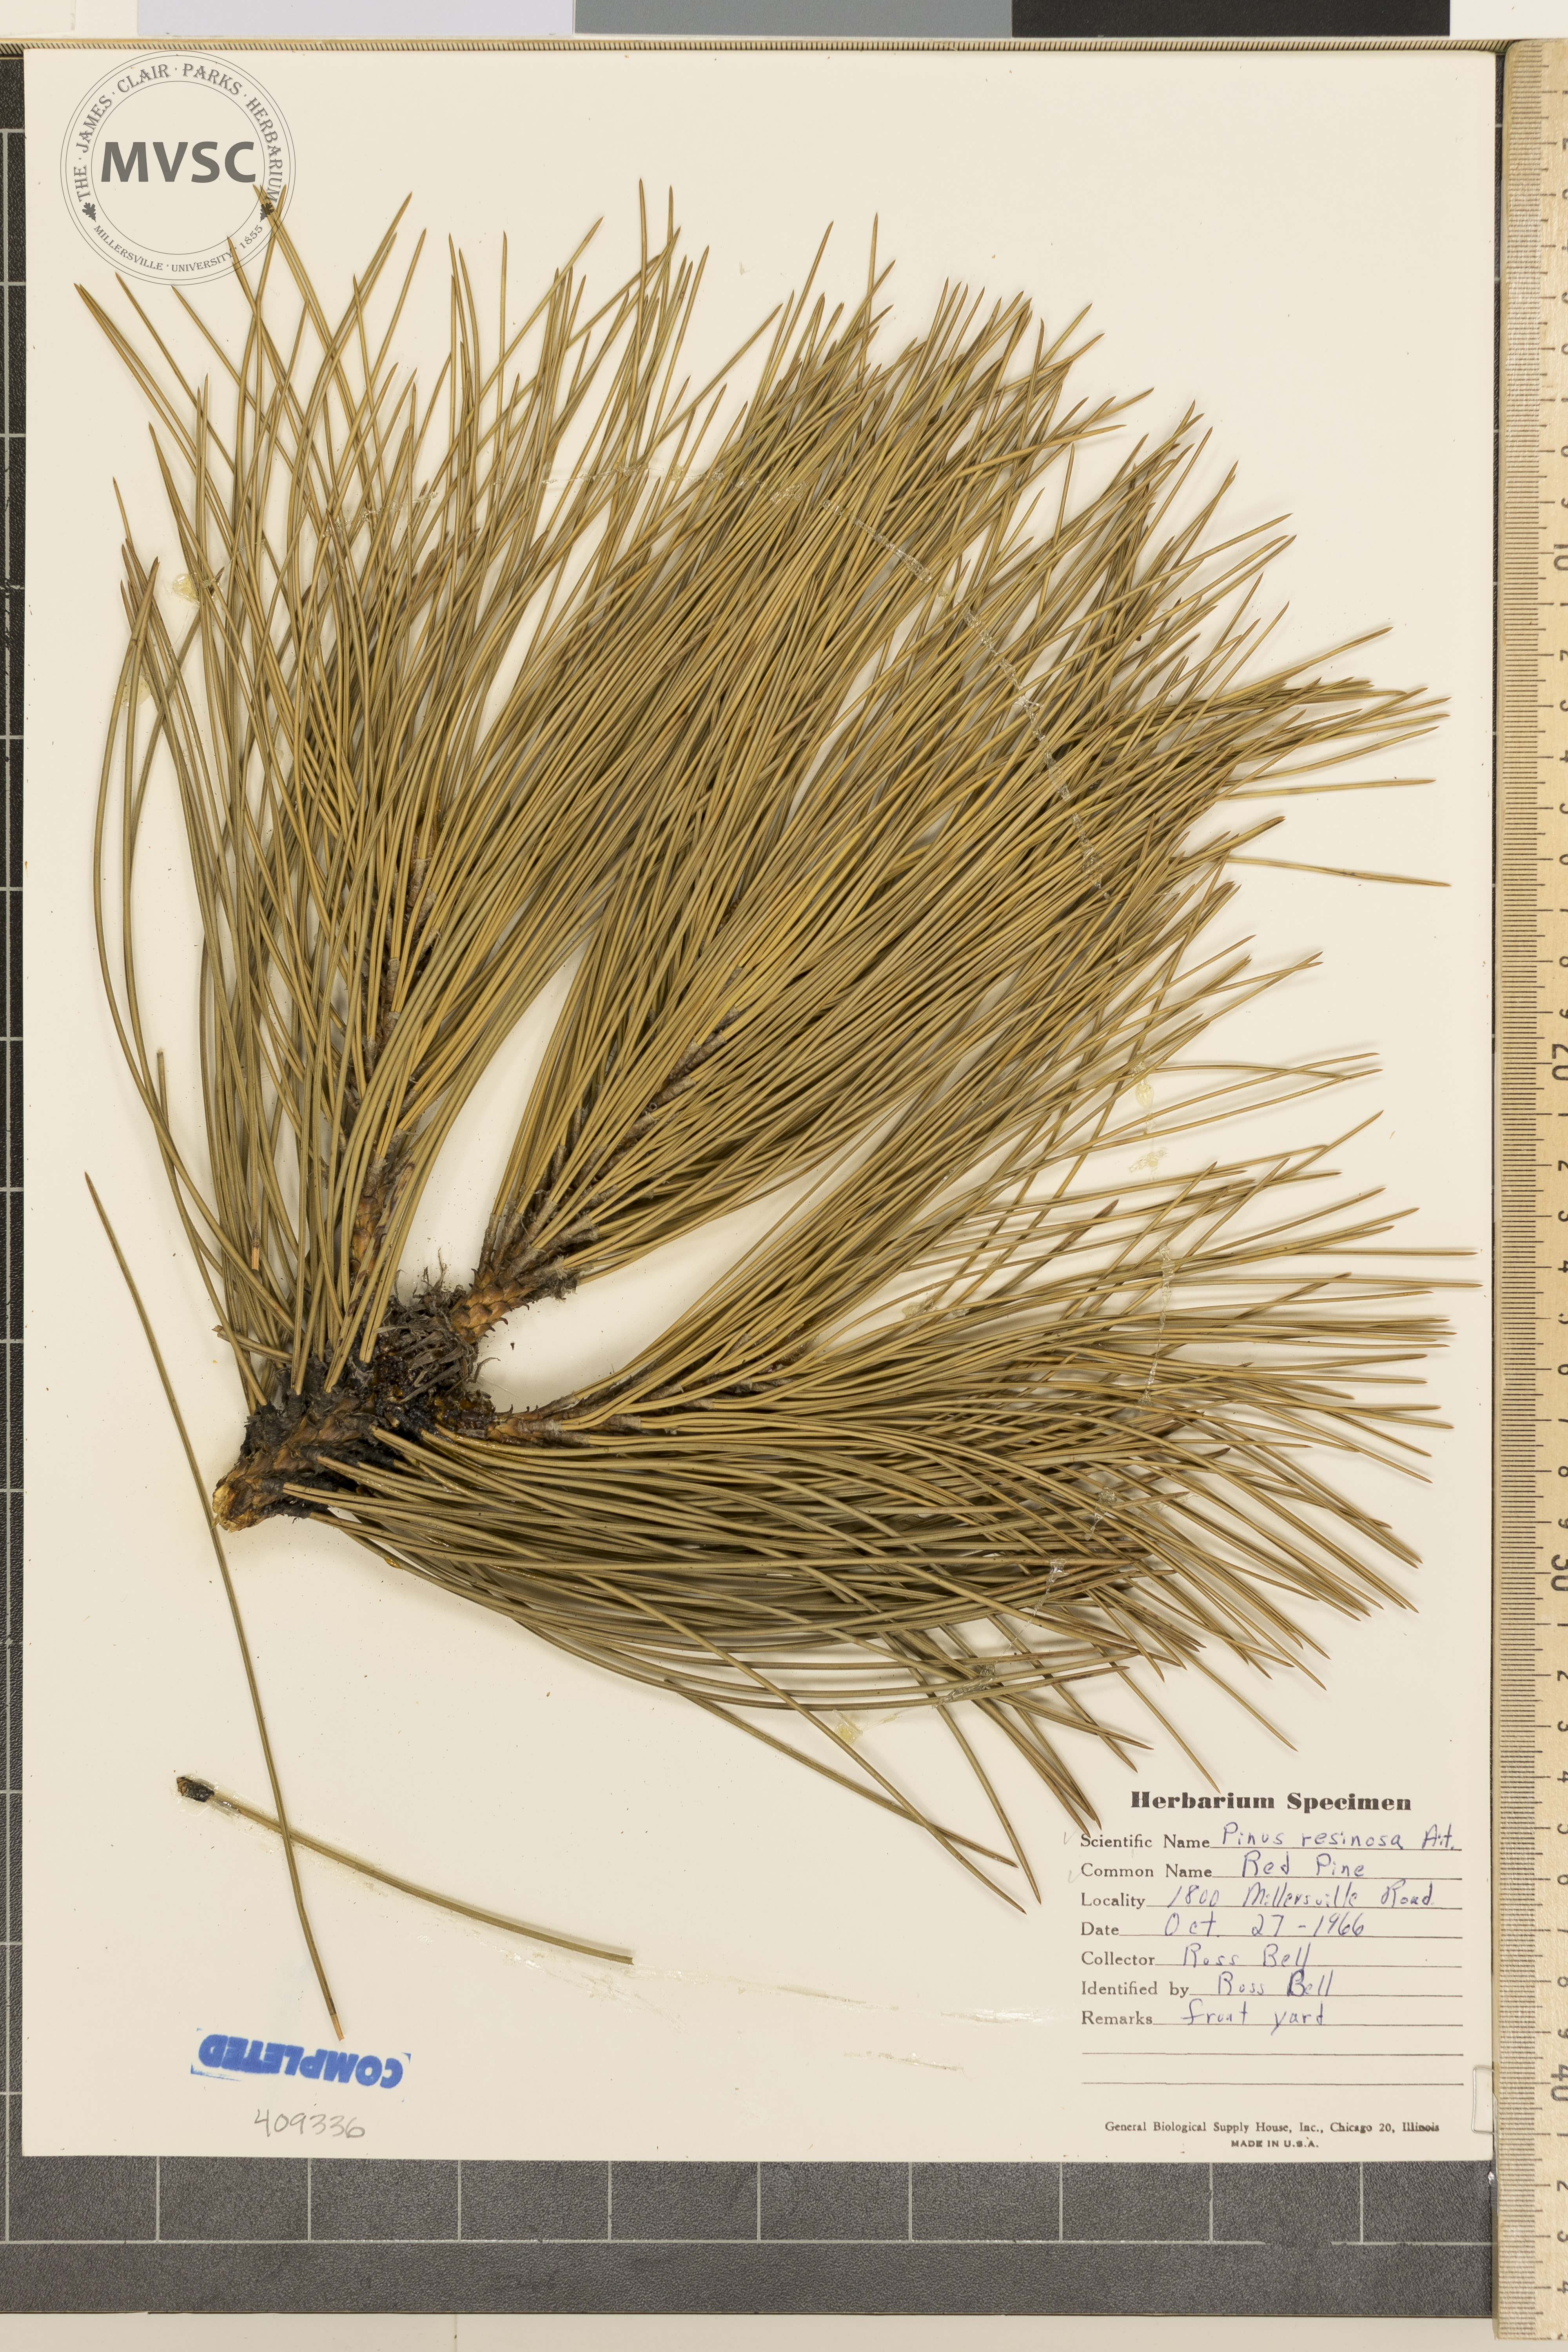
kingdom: Plantae
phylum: Tracheophyta
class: Pinopsida
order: Pinales
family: Pinaceae
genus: Pinus
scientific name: Pinus resinosa
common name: Norway pine
